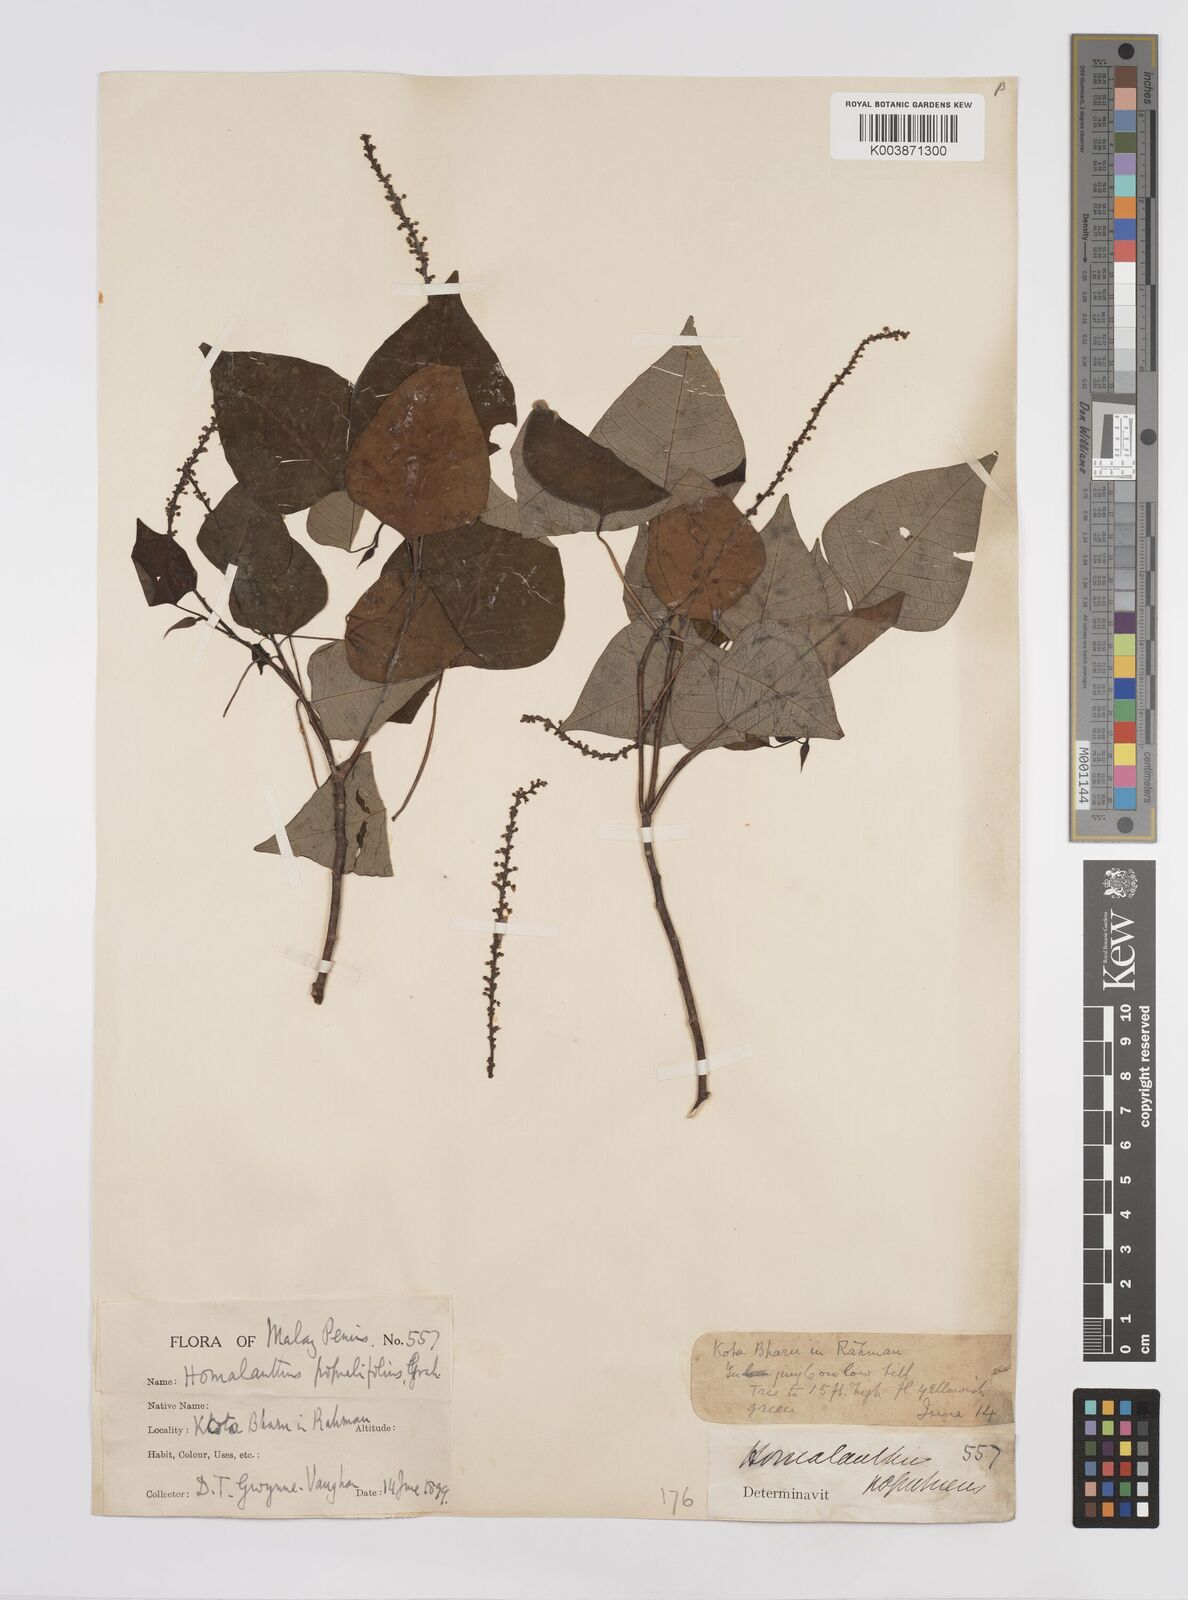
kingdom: Plantae
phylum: Tracheophyta
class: Magnoliopsida
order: Malpighiales
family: Euphorbiaceae
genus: Homalanthus
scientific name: Homalanthus populneus
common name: Spurge
